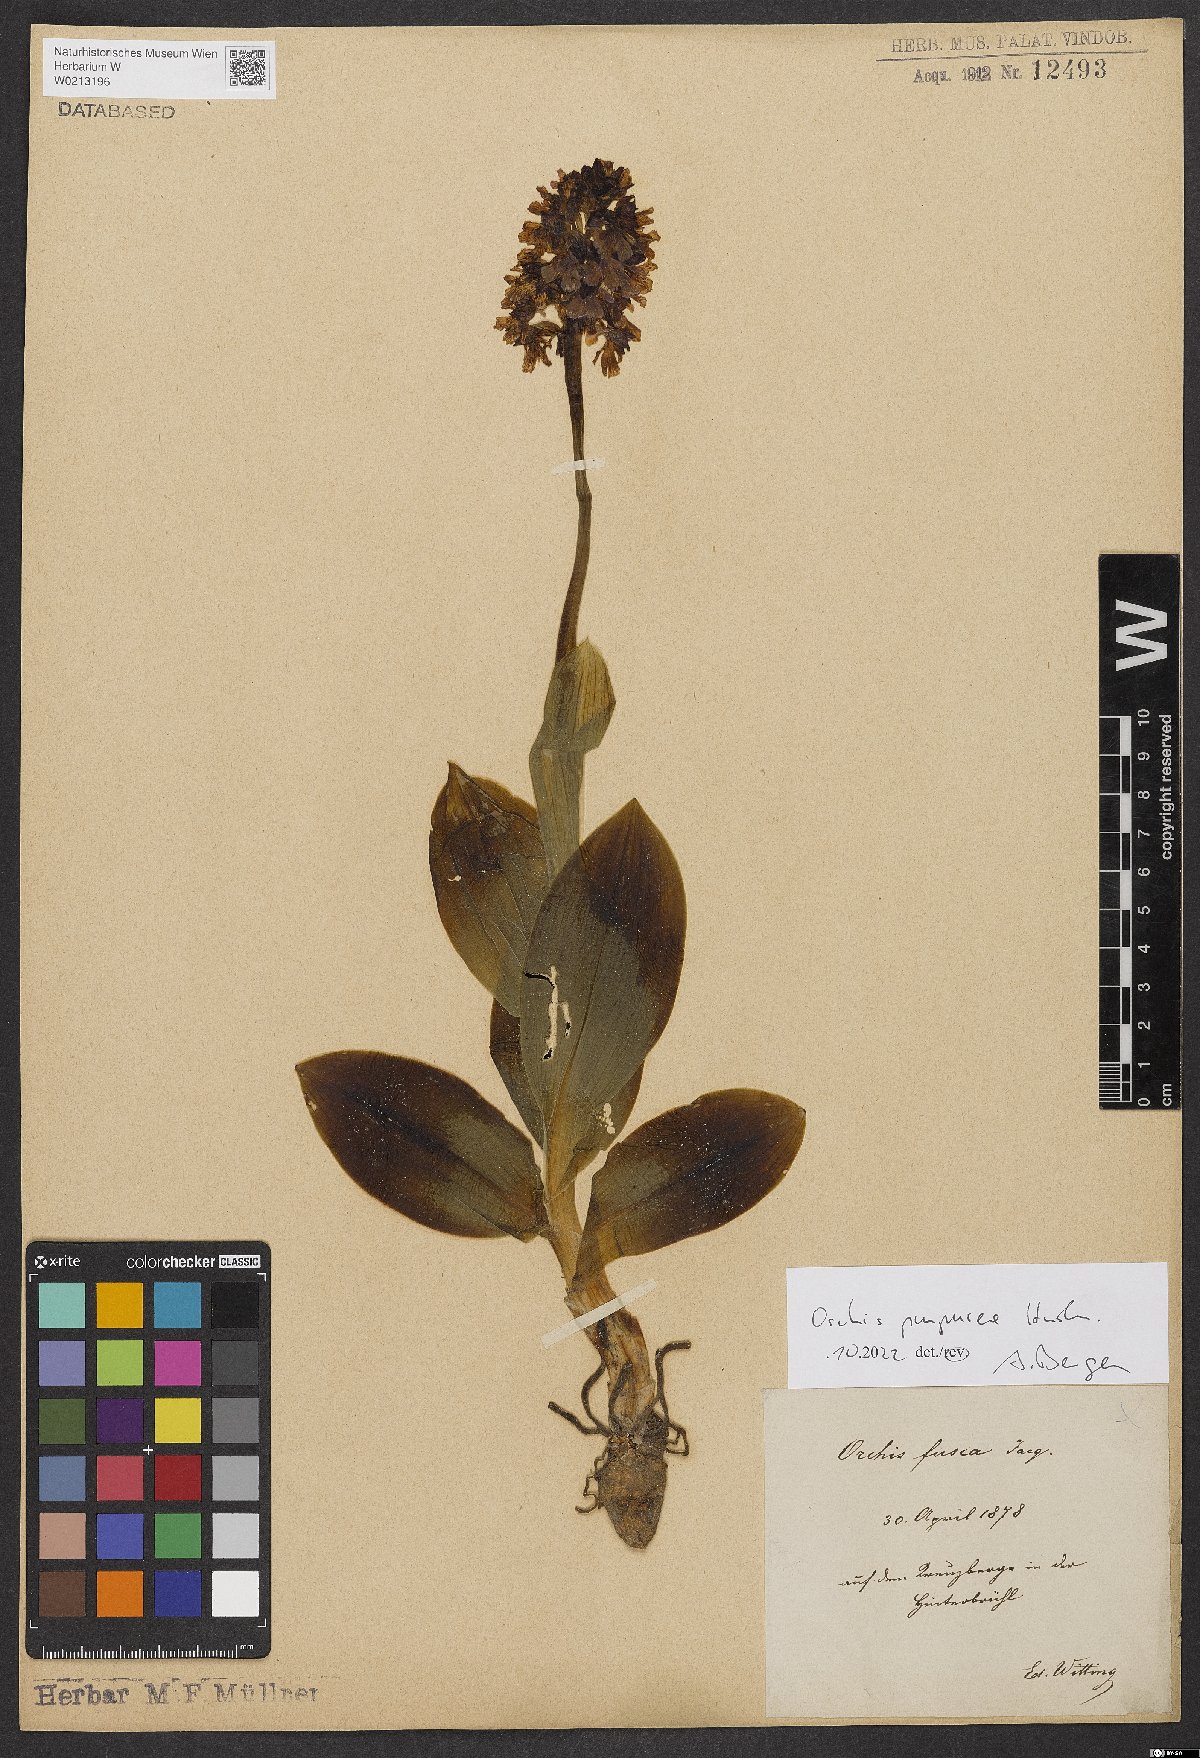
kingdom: Plantae
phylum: Tracheophyta
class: Liliopsida
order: Asparagales
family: Orchidaceae
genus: Orchis
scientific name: Orchis purpurea
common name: Lady orchid
